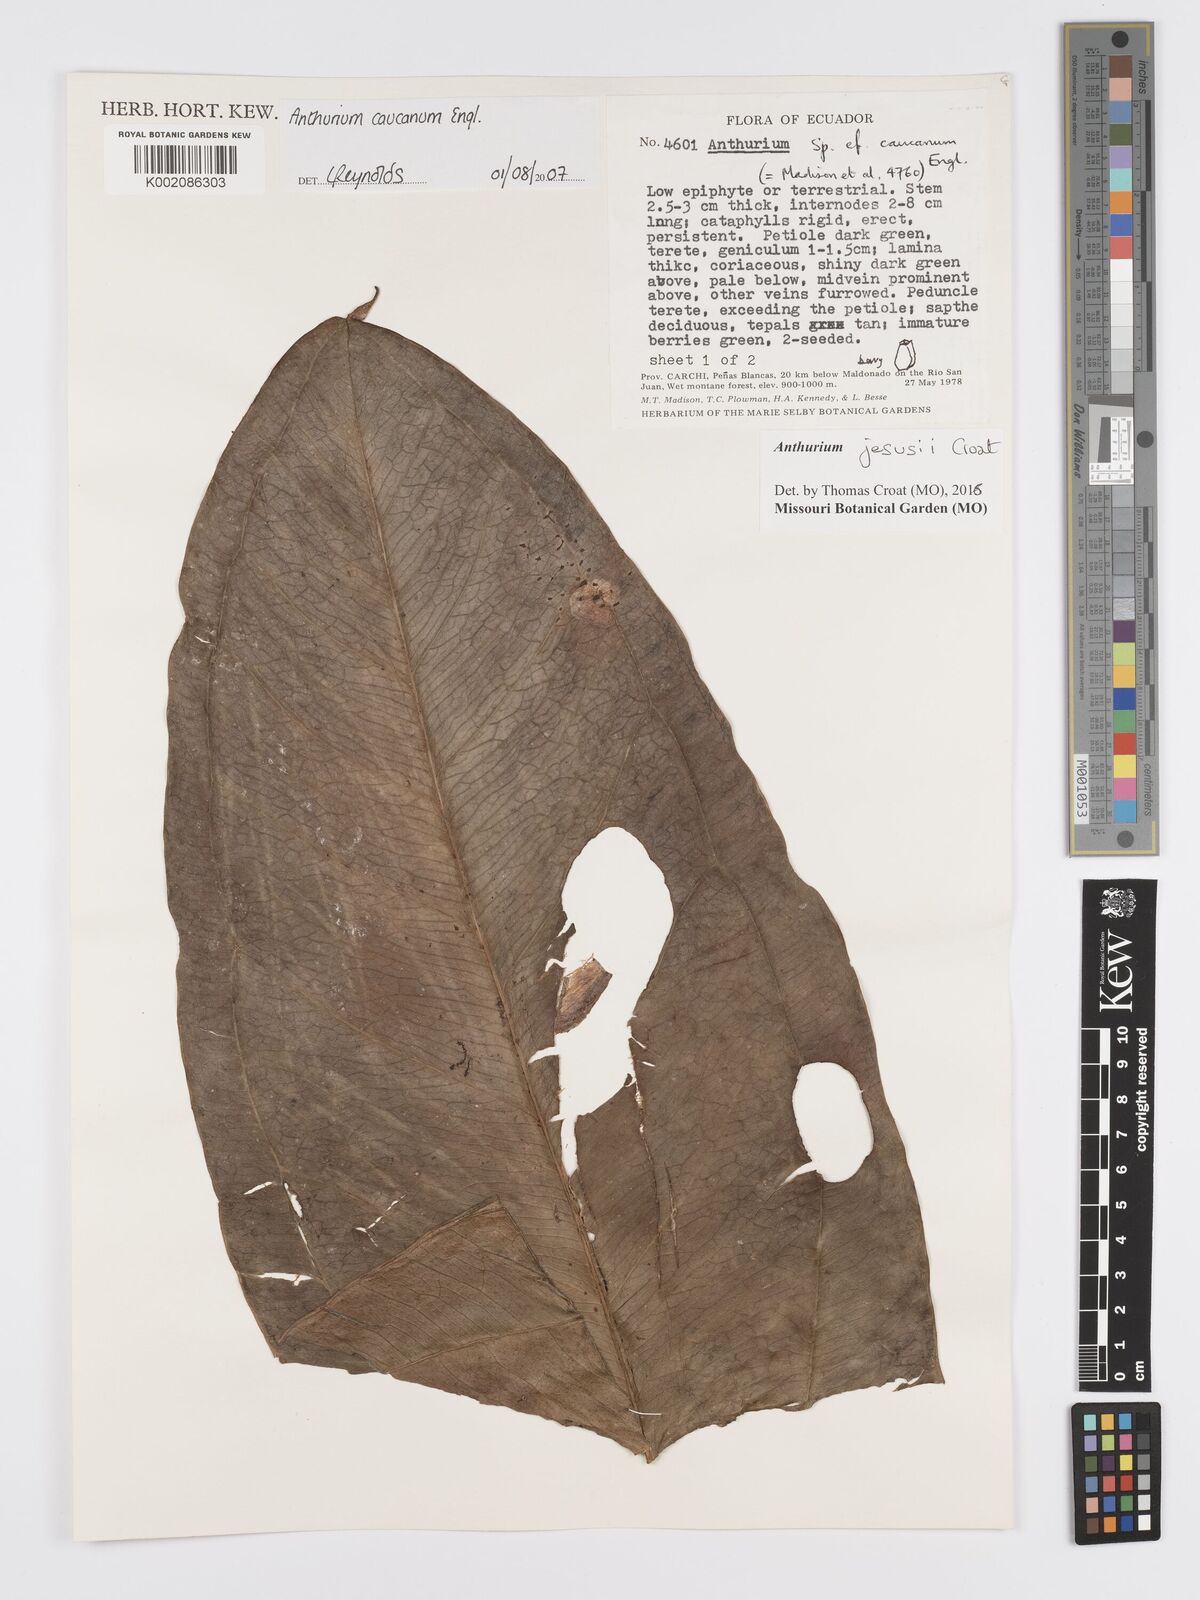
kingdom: Plantae
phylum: Tracheophyta
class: Liliopsida
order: Alismatales
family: Araceae
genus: Anthurium
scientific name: Anthurium jesusii
